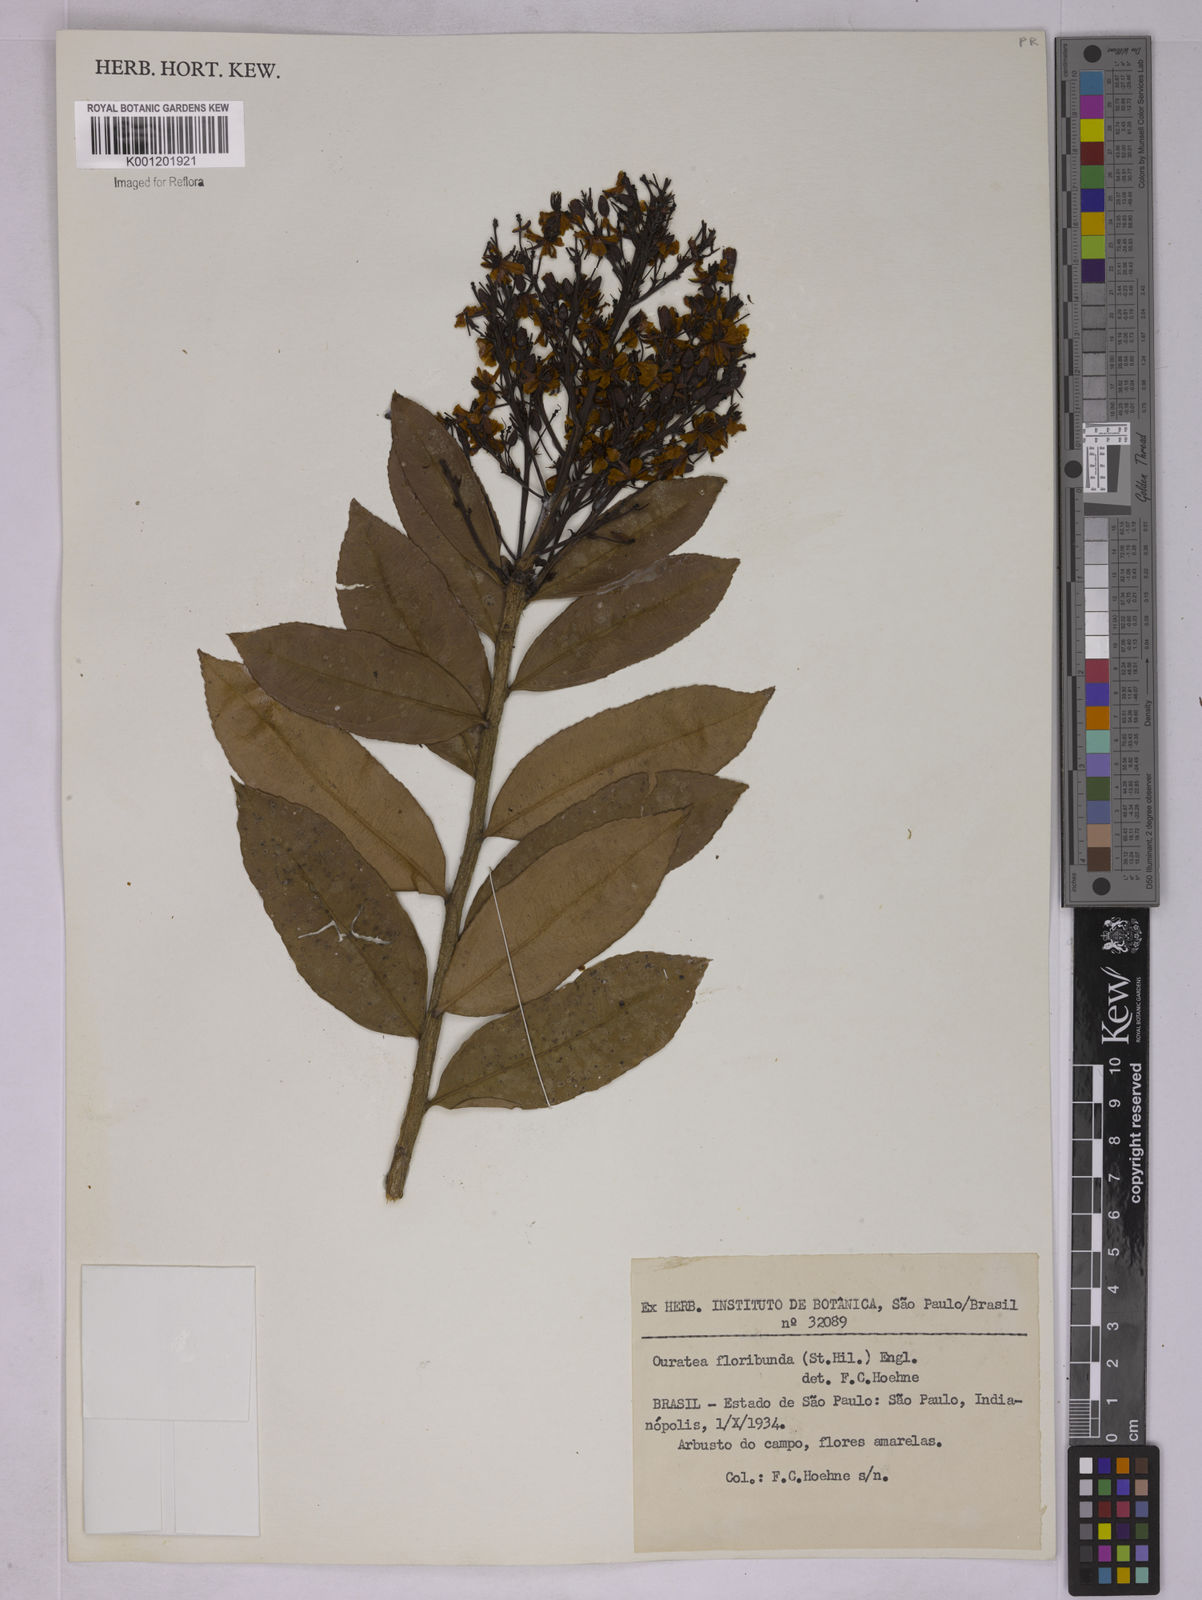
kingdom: Plantae
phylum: Tracheophyta
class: Magnoliopsida
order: Malpighiales
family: Ochnaceae
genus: Ouratea
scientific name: Ouratea floribunda
